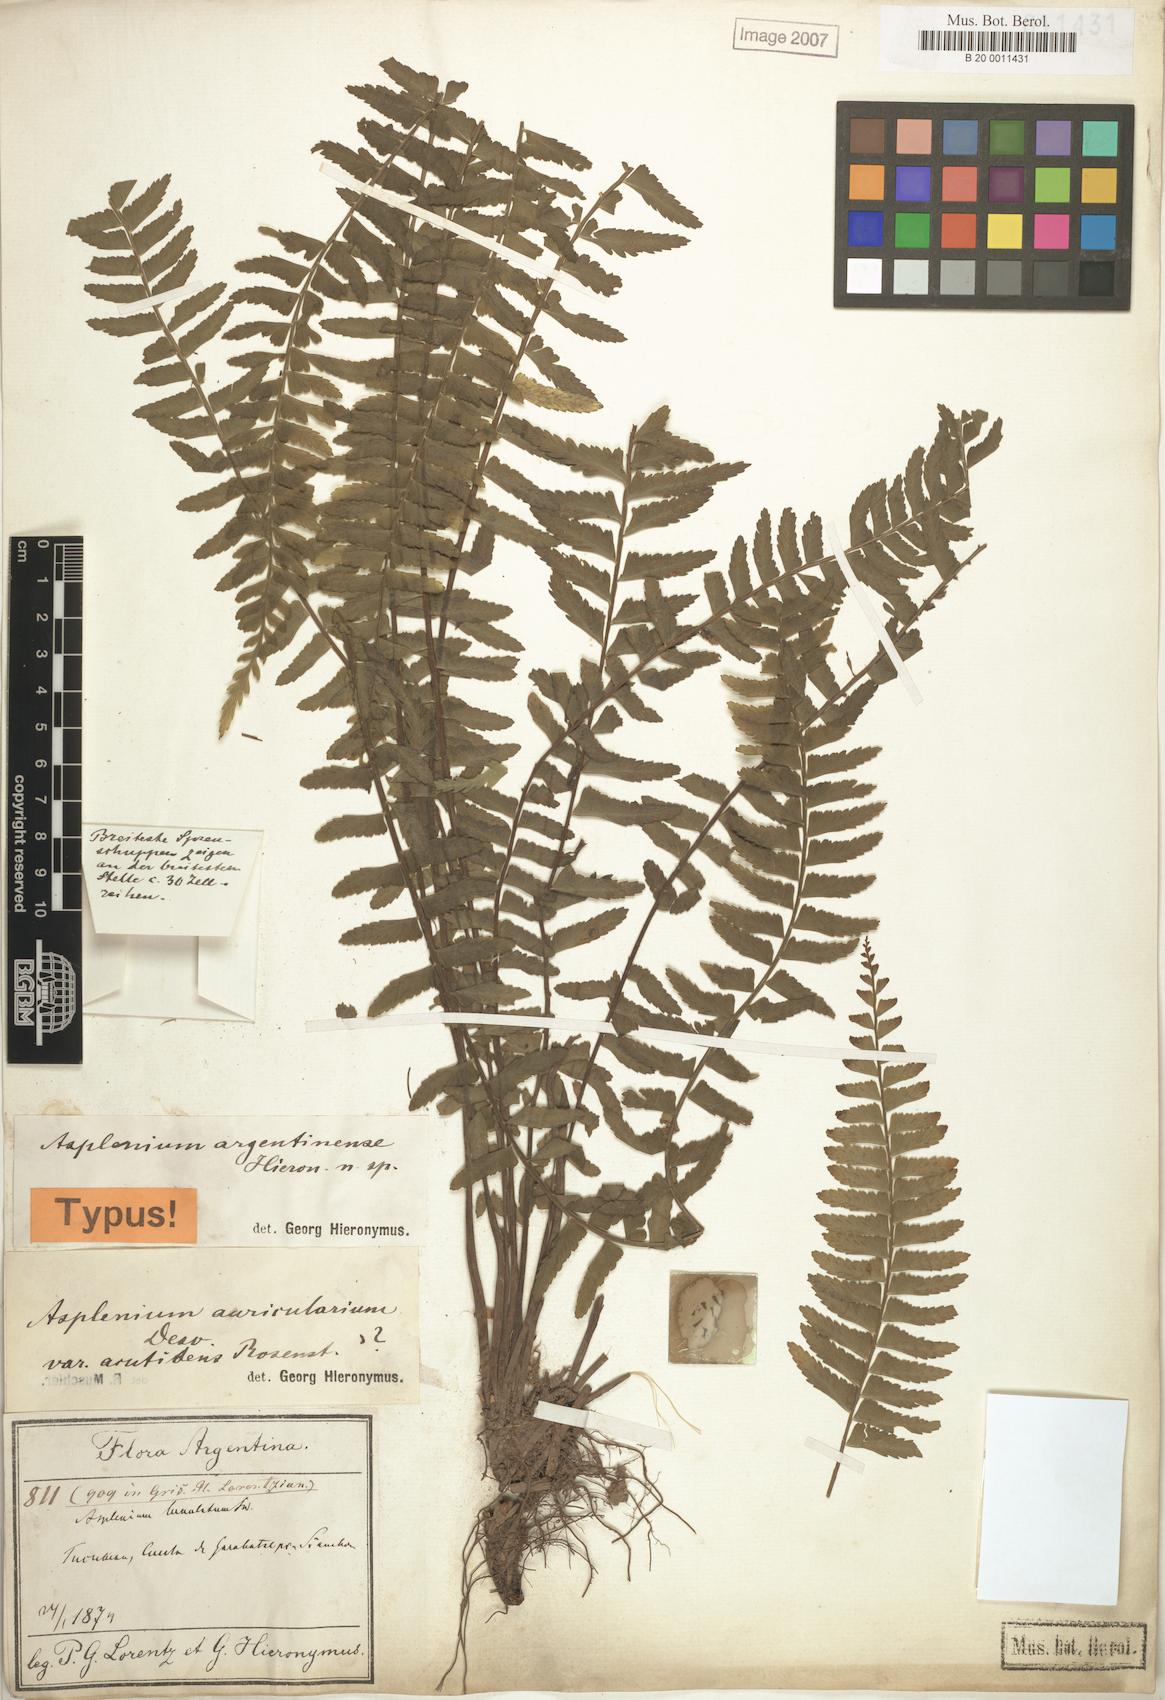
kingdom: Plantae
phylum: Tracheophyta
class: Polypodiopsida
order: Polypodiales
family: Aspleniaceae
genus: Asplenium
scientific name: Asplenium argentinum
